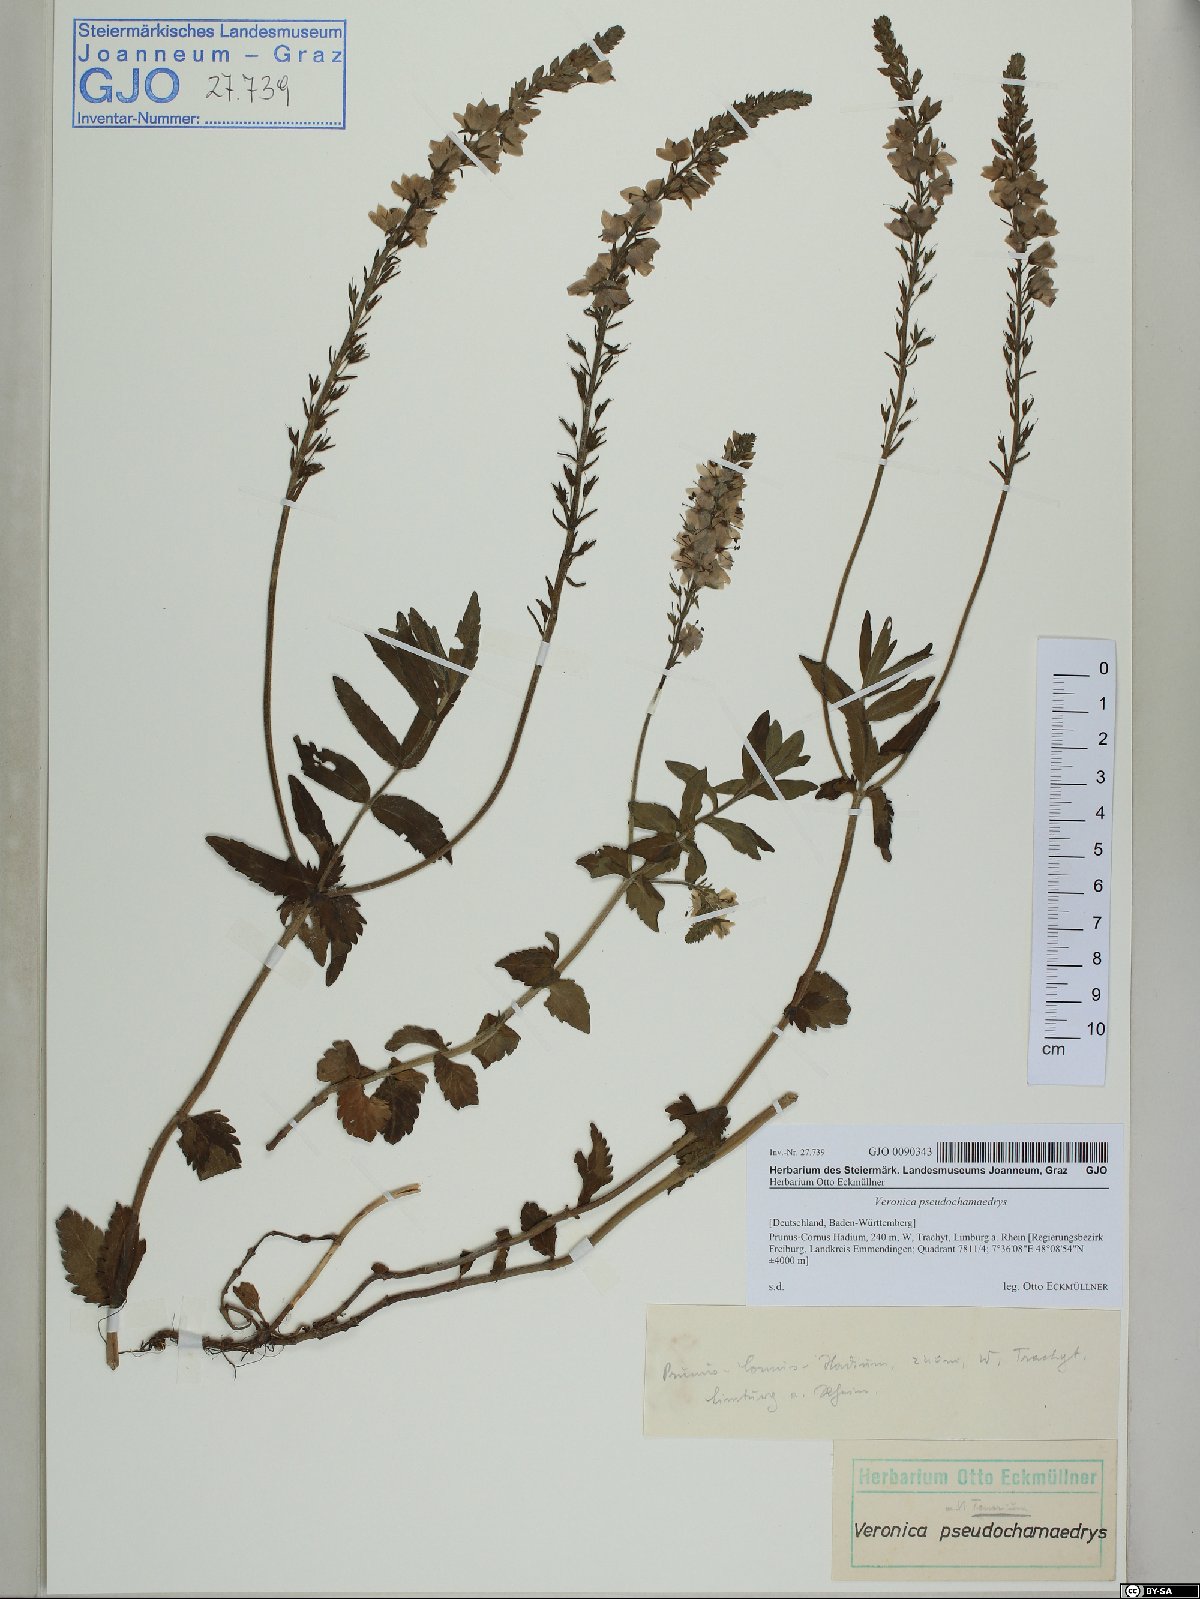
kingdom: Plantae
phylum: Tracheophyta
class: Magnoliopsida
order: Lamiales
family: Plantaginaceae
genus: Veronica
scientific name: Veronica teucrium
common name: Large speedwell
